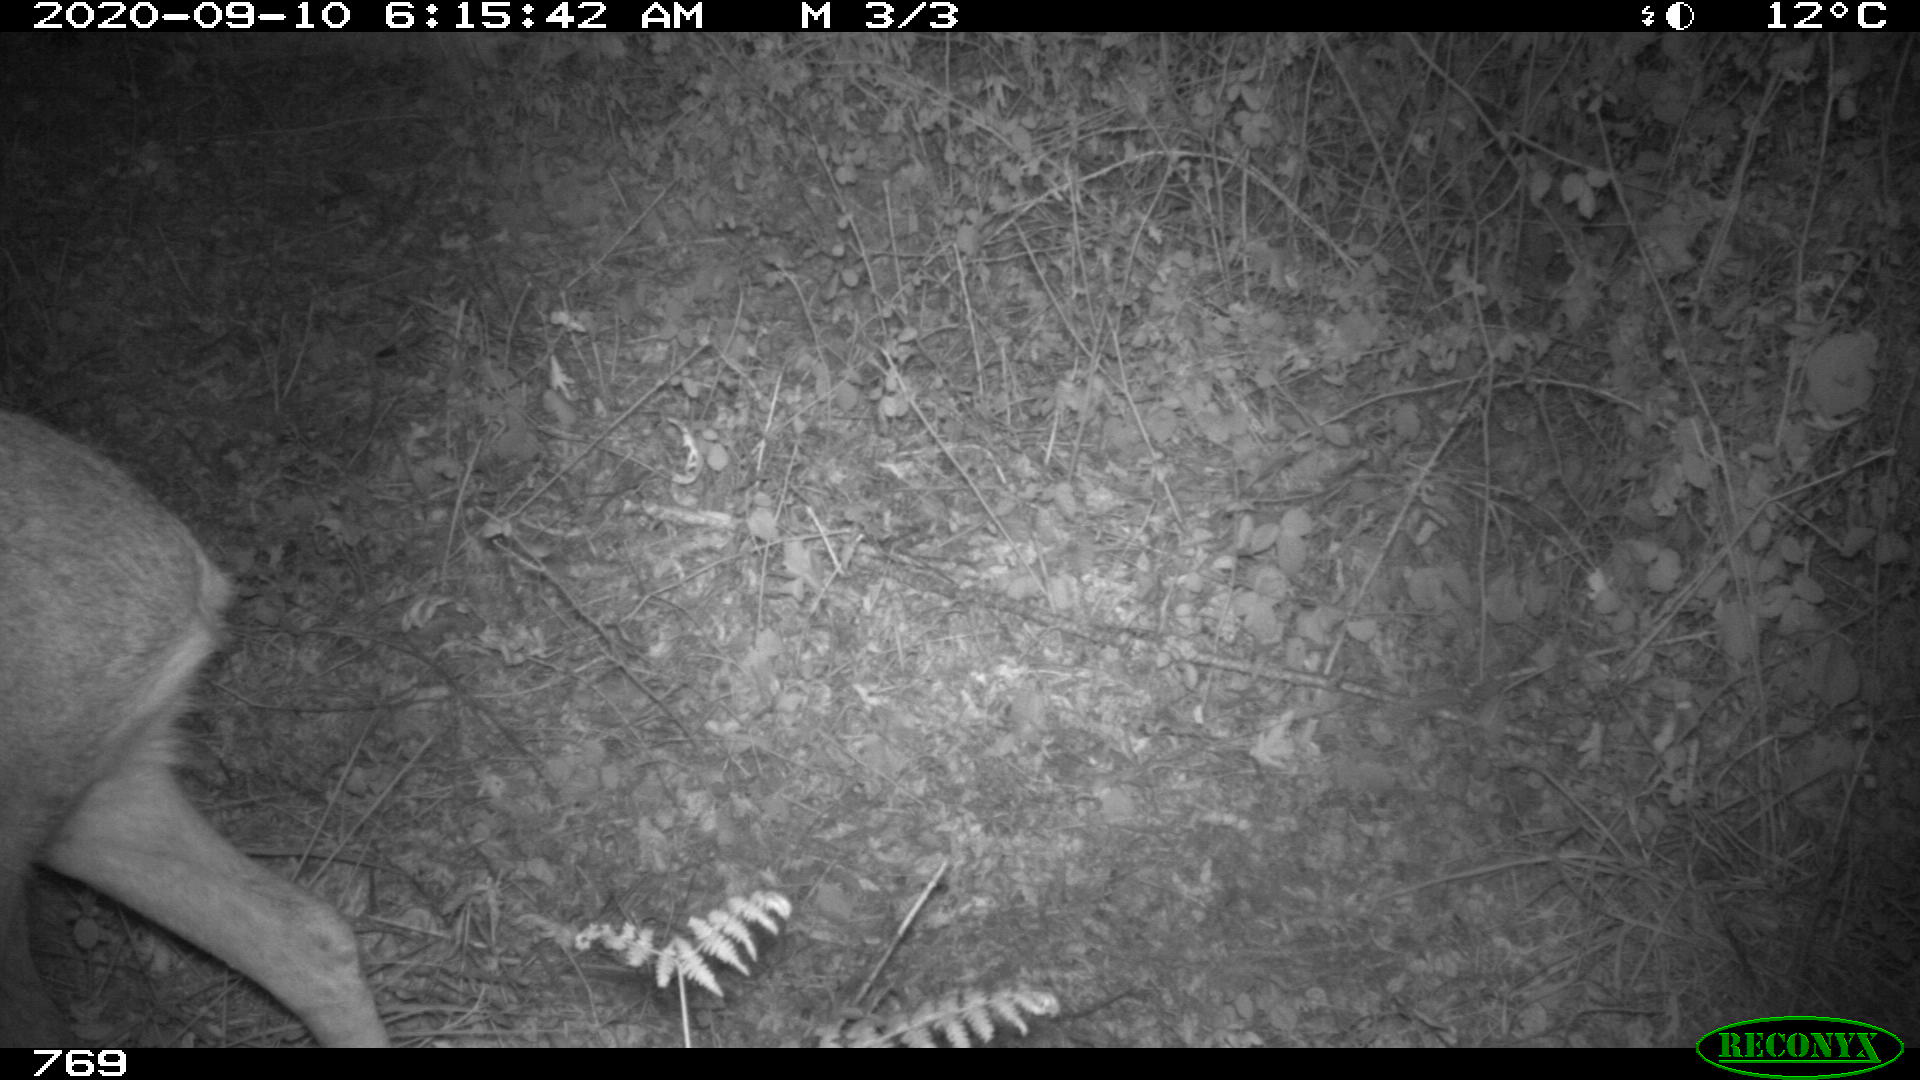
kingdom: Animalia
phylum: Chordata
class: Mammalia
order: Artiodactyla
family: Cervidae
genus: Capreolus
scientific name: Capreolus capreolus
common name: Western roe deer
